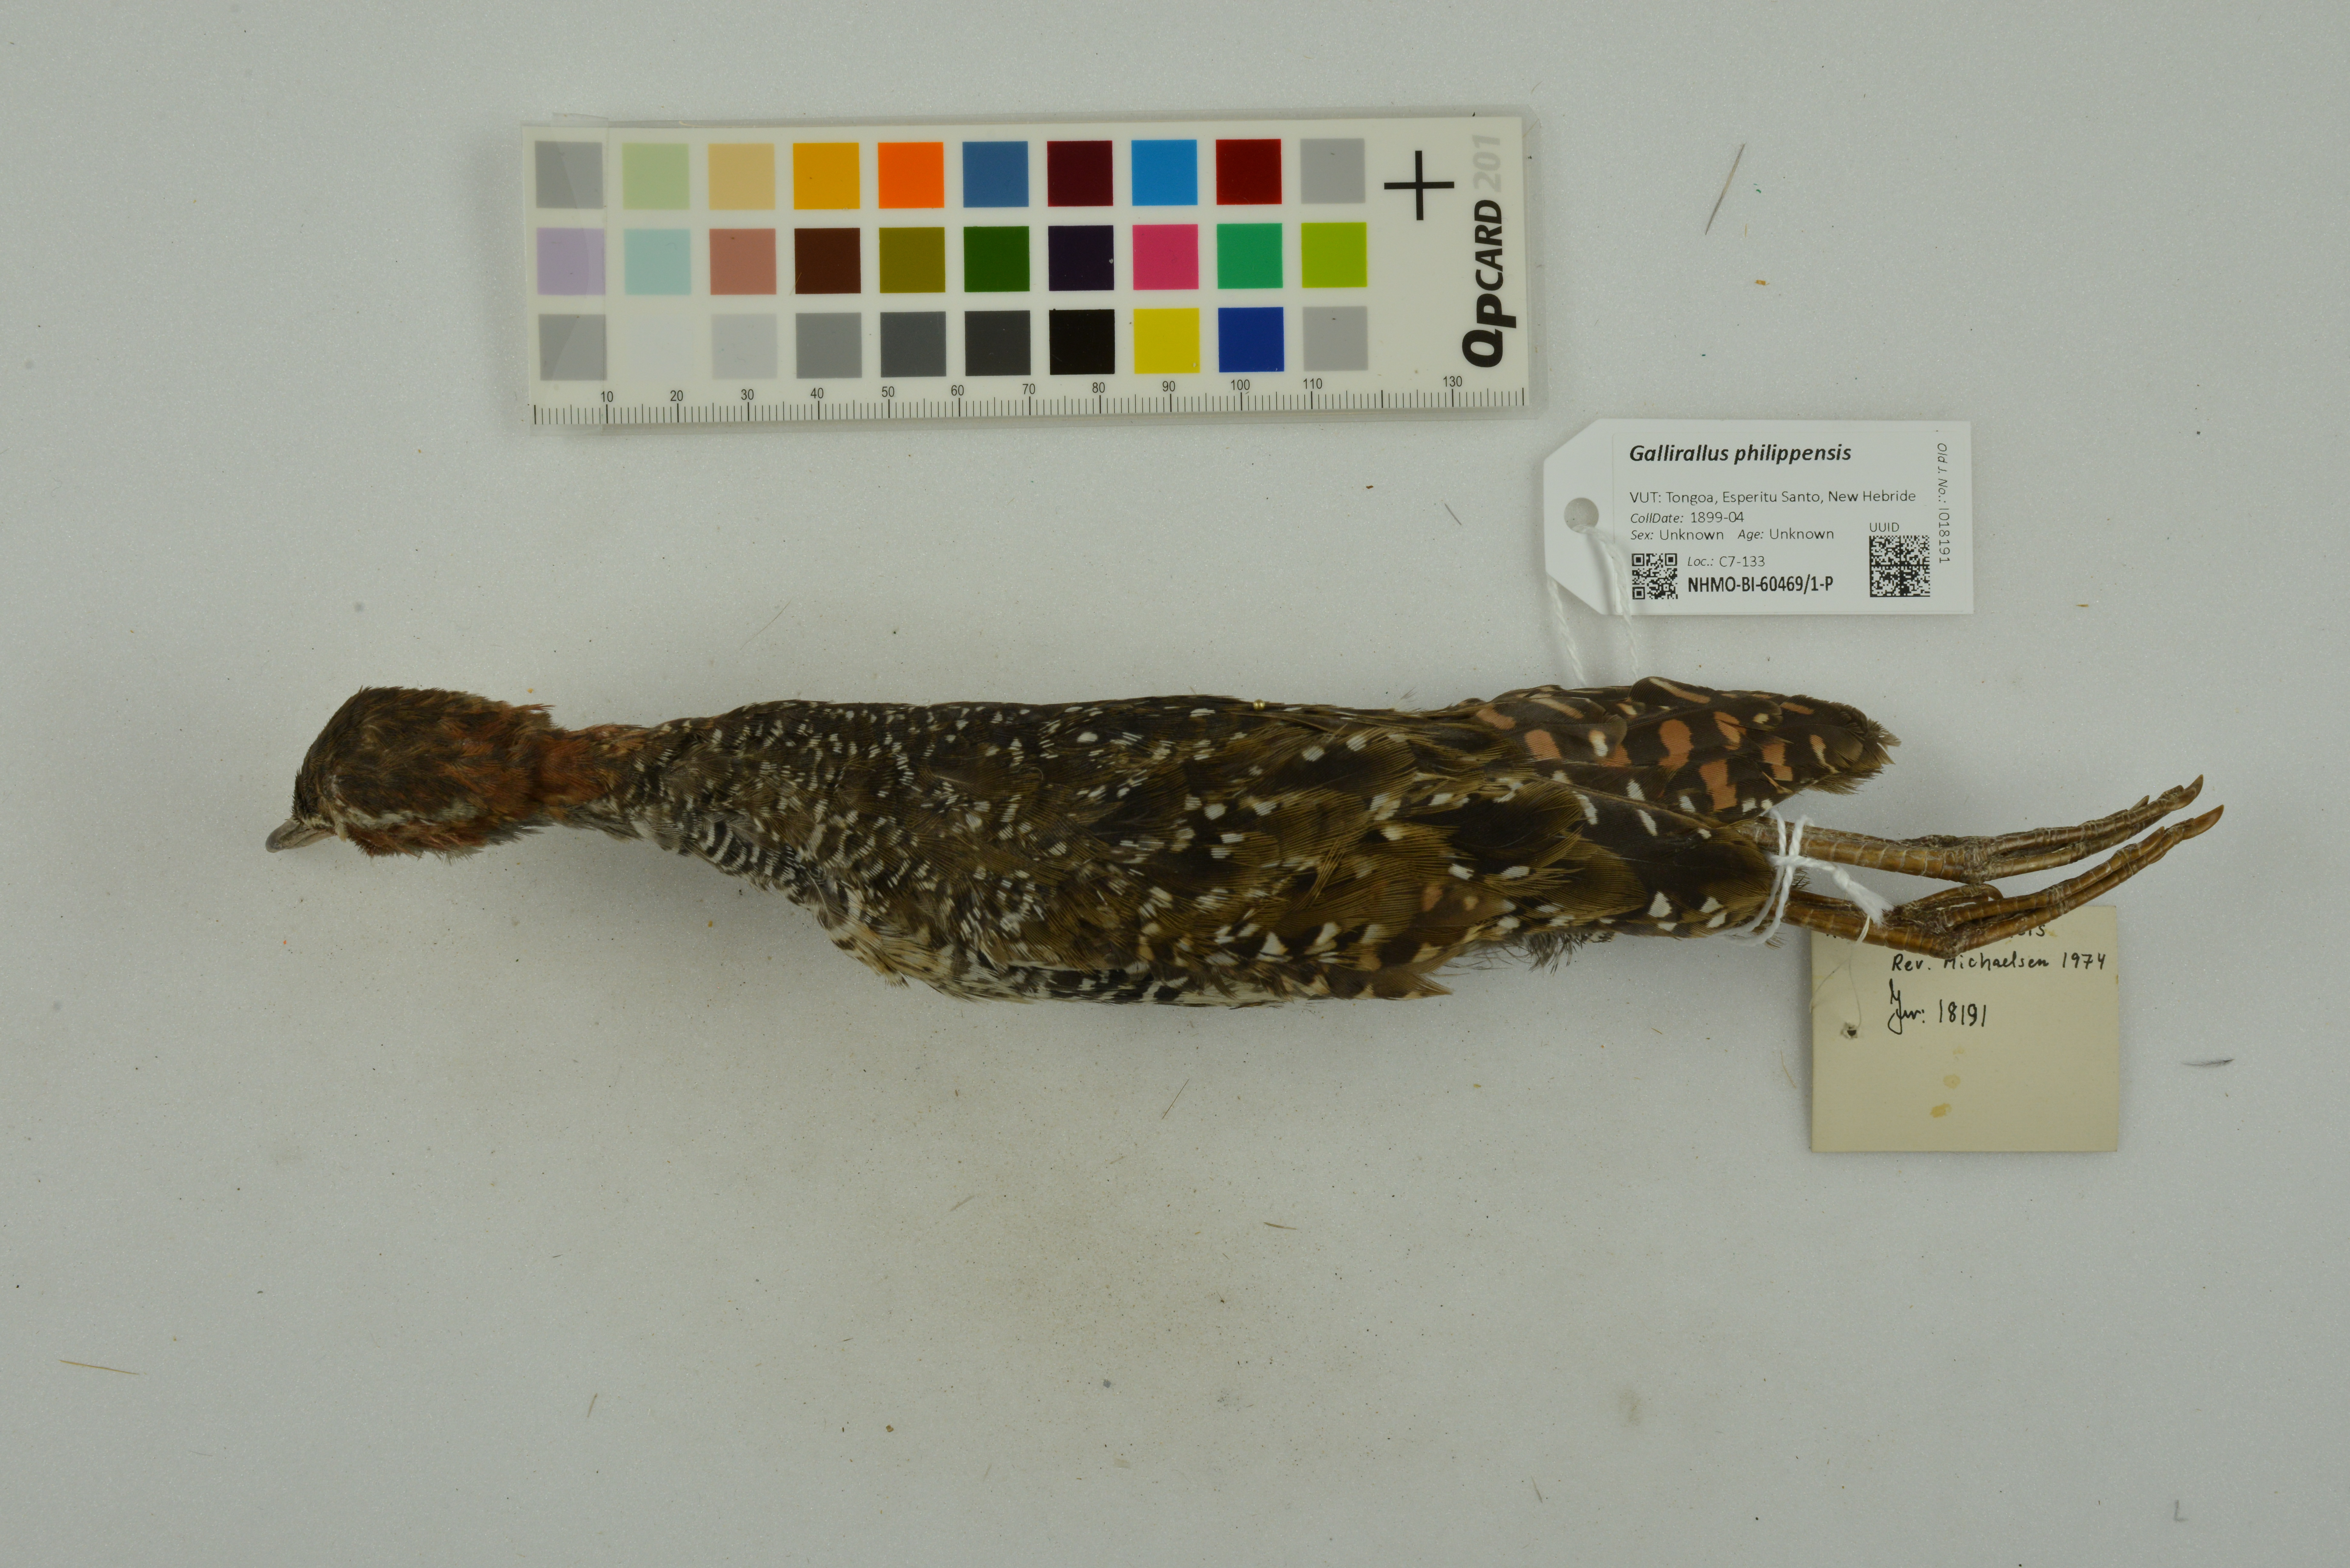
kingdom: Animalia
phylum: Chordata
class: Aves
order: Gruiformes
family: Rallidae
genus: Gallirallus
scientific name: Gallirallus philippensis
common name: Buff-banded rail
